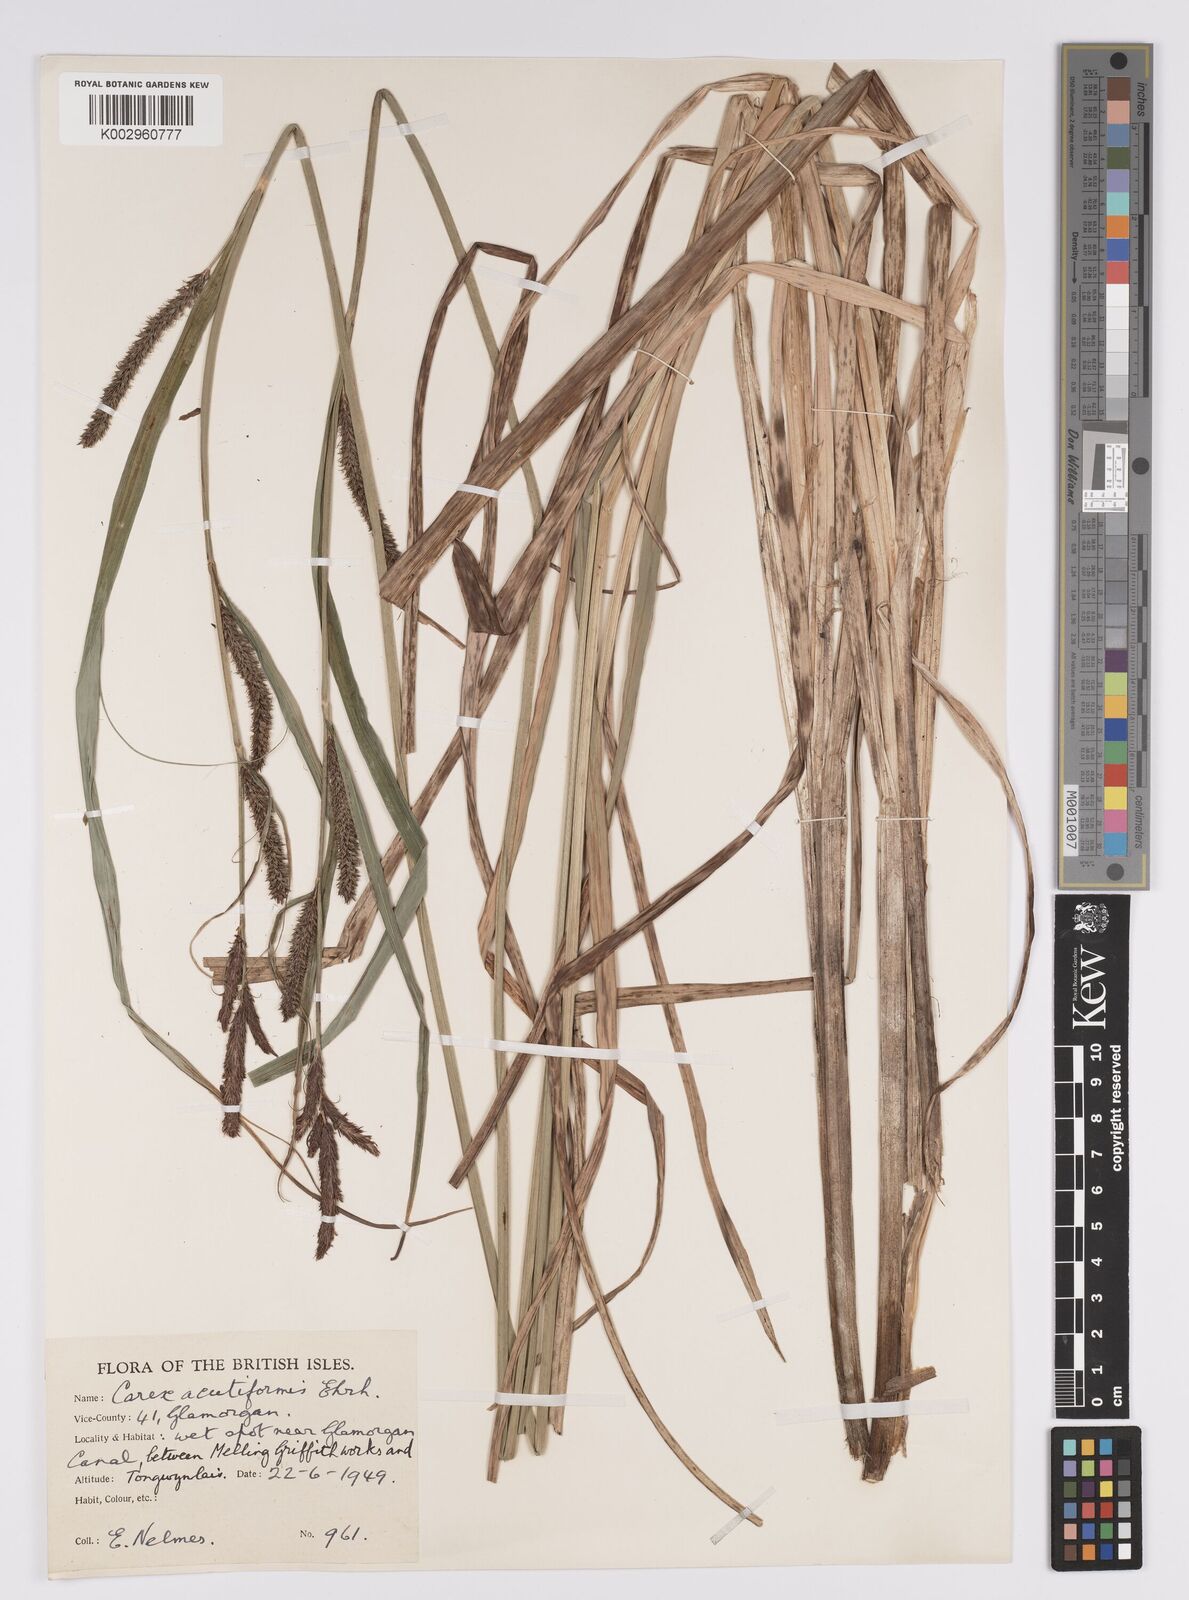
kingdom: Plantae
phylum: Tracheophyta
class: Liliopsida
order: Poales
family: Cyperaceae
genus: Carex
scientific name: Carex acutiformis
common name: Lesser pond-sedge
